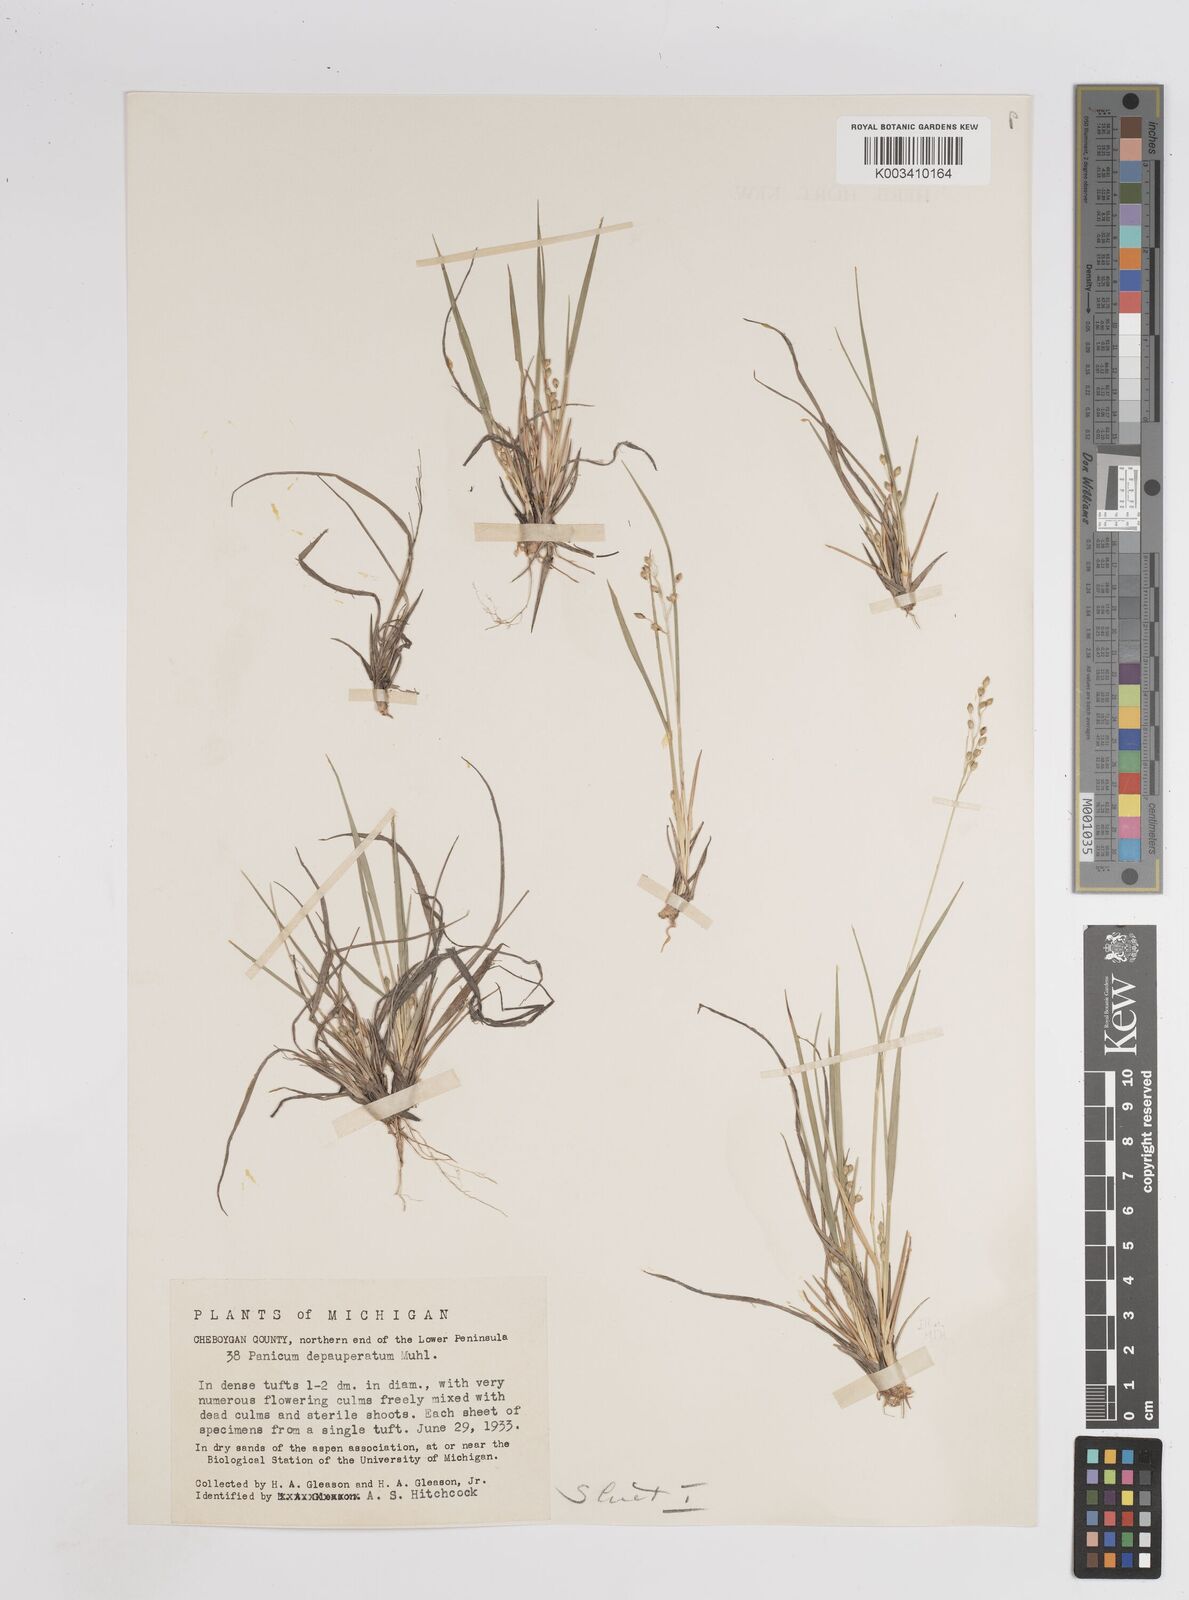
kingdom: Plantae
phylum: Tracheophyta
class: Liliopsida
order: Poales
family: Poaceae
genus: Dichanthelium
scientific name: Dichanthelium depauperatum
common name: Depauperate panicgrass
